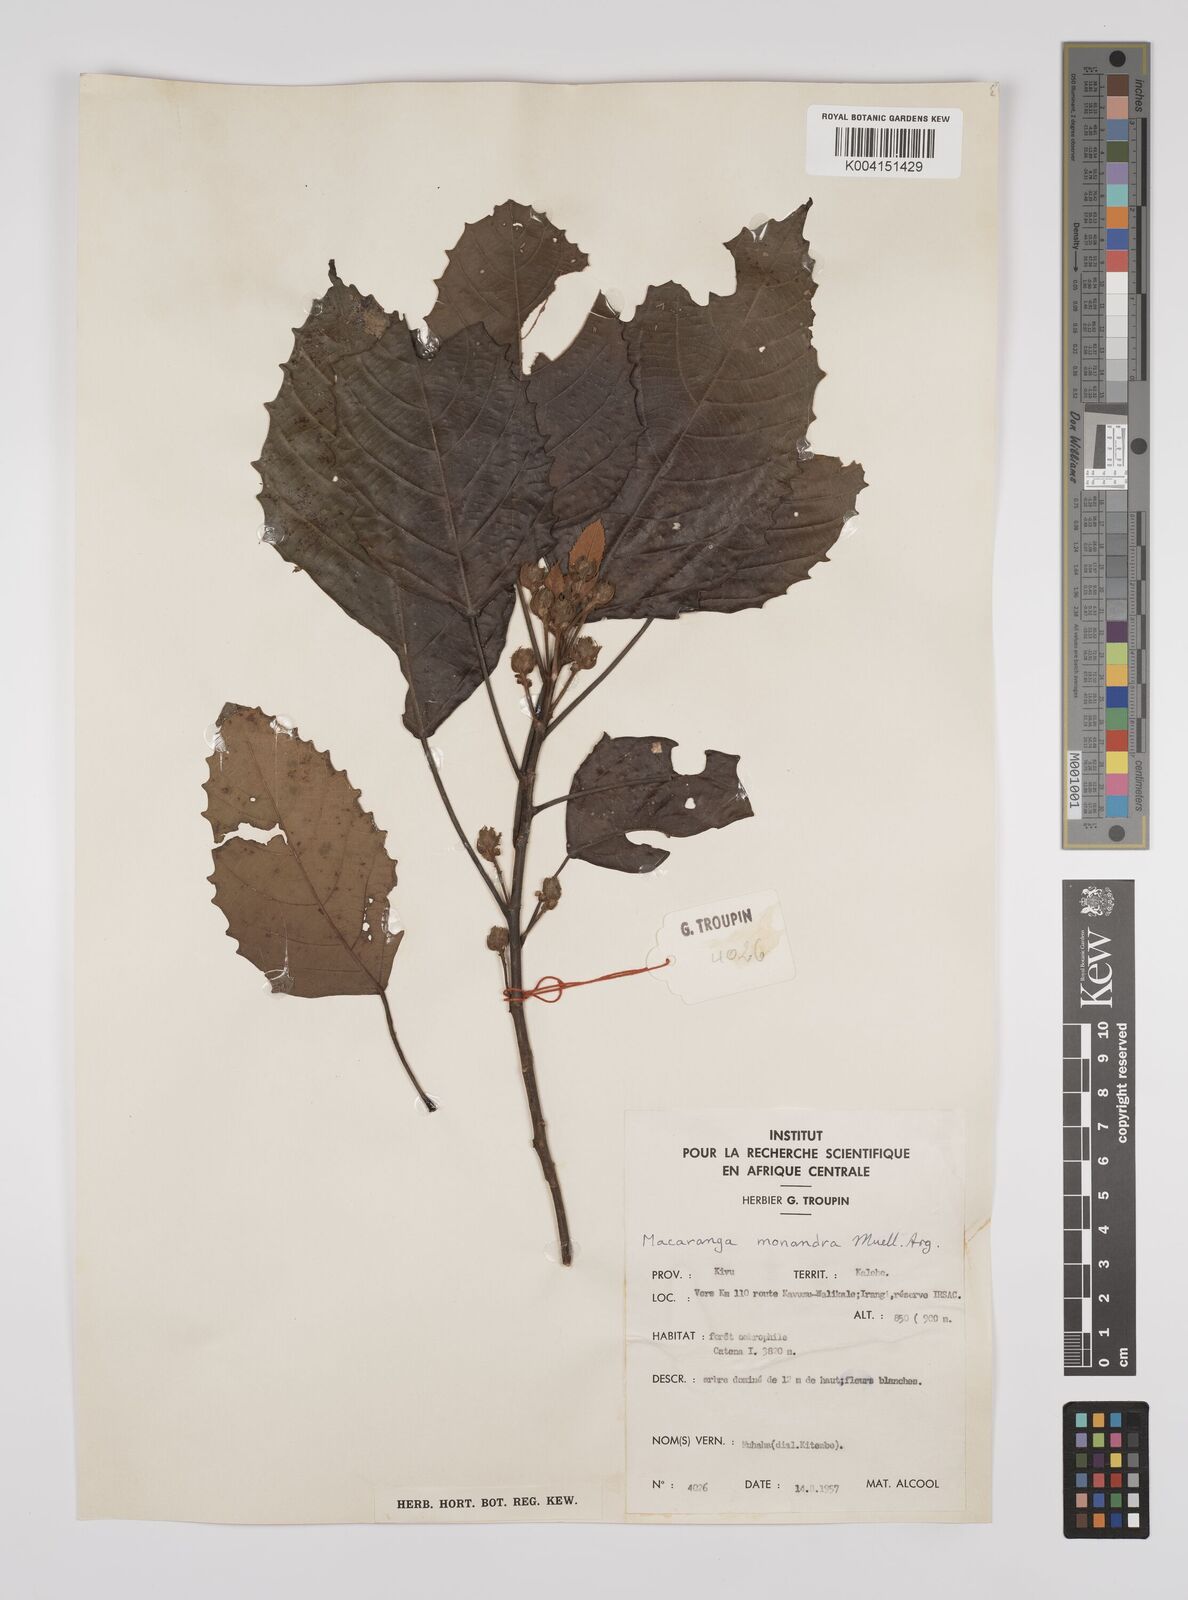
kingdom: Plantae
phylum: Tracheophyta
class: Magnoliopsida
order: Malpighiales
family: Euphorbiaceae
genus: Macaranga
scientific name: Macaranga monandra
